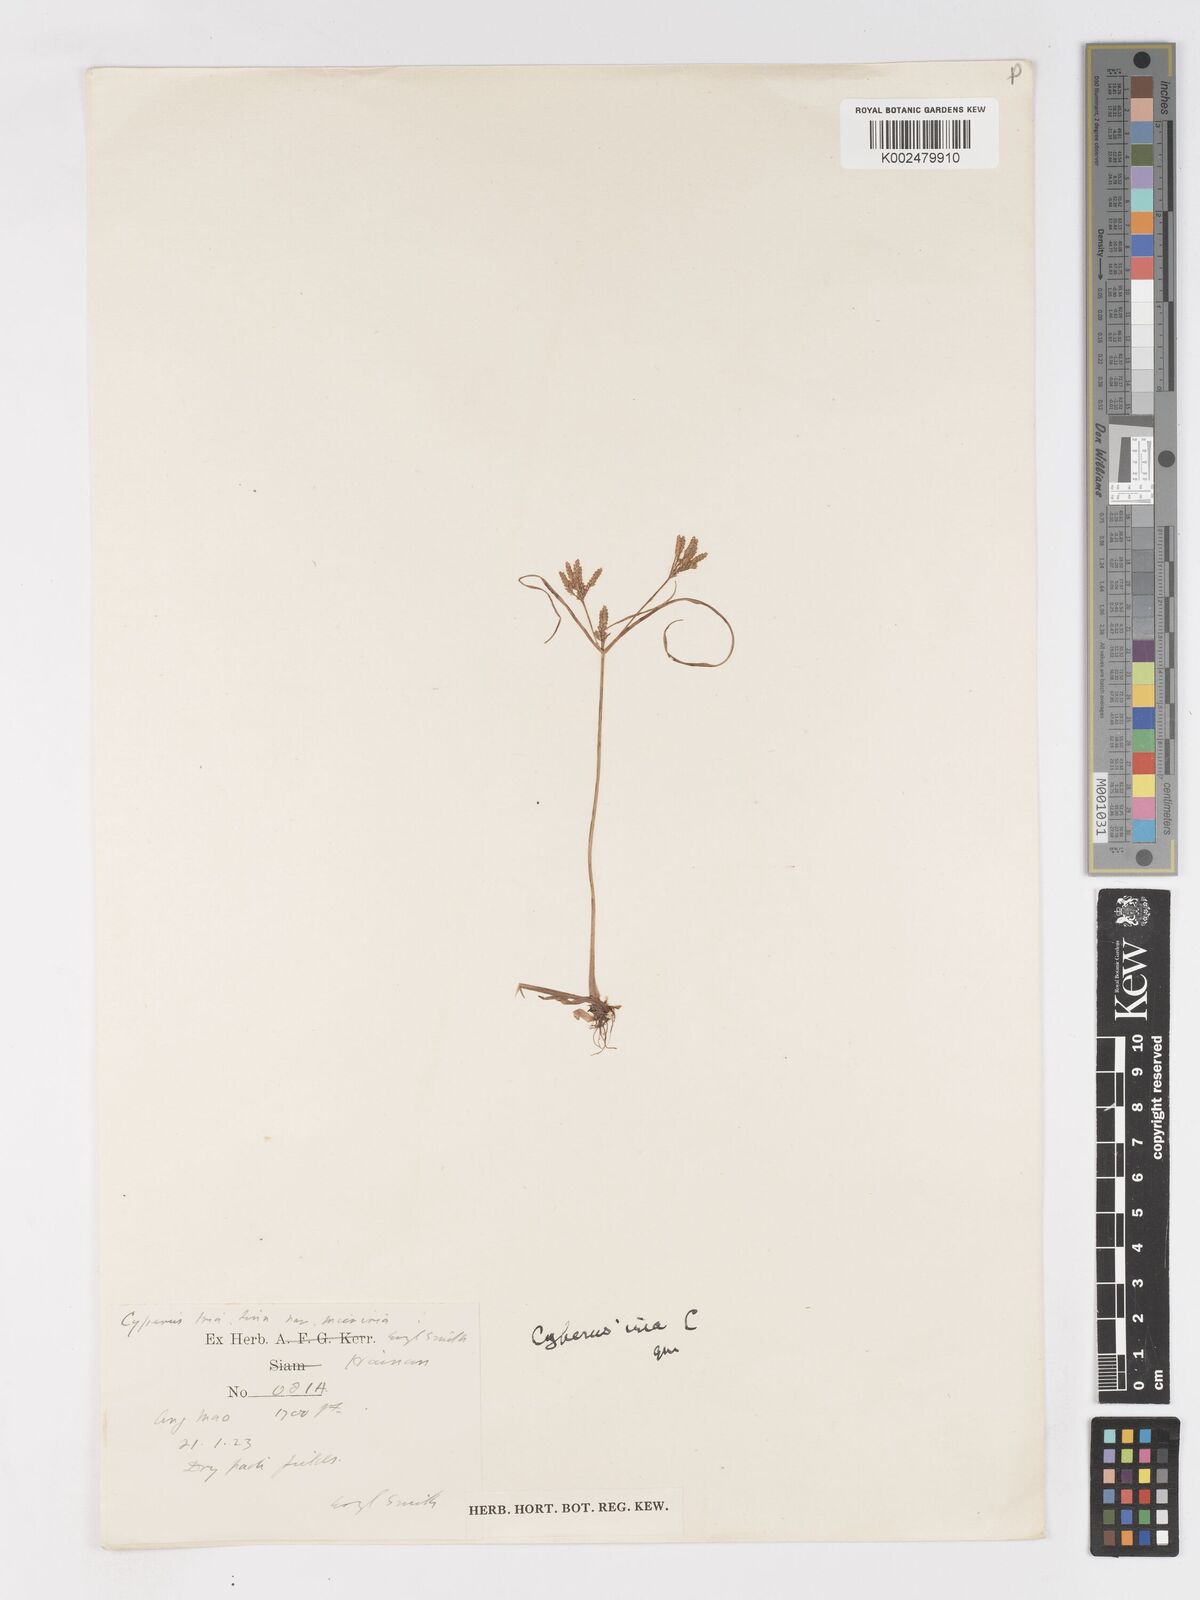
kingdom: Plantae
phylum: Tracheophyta
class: Liliopsida
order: Poales
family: Cyperaceae
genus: Cyperus
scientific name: Cyperus iria
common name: Ricefield flatsedge
